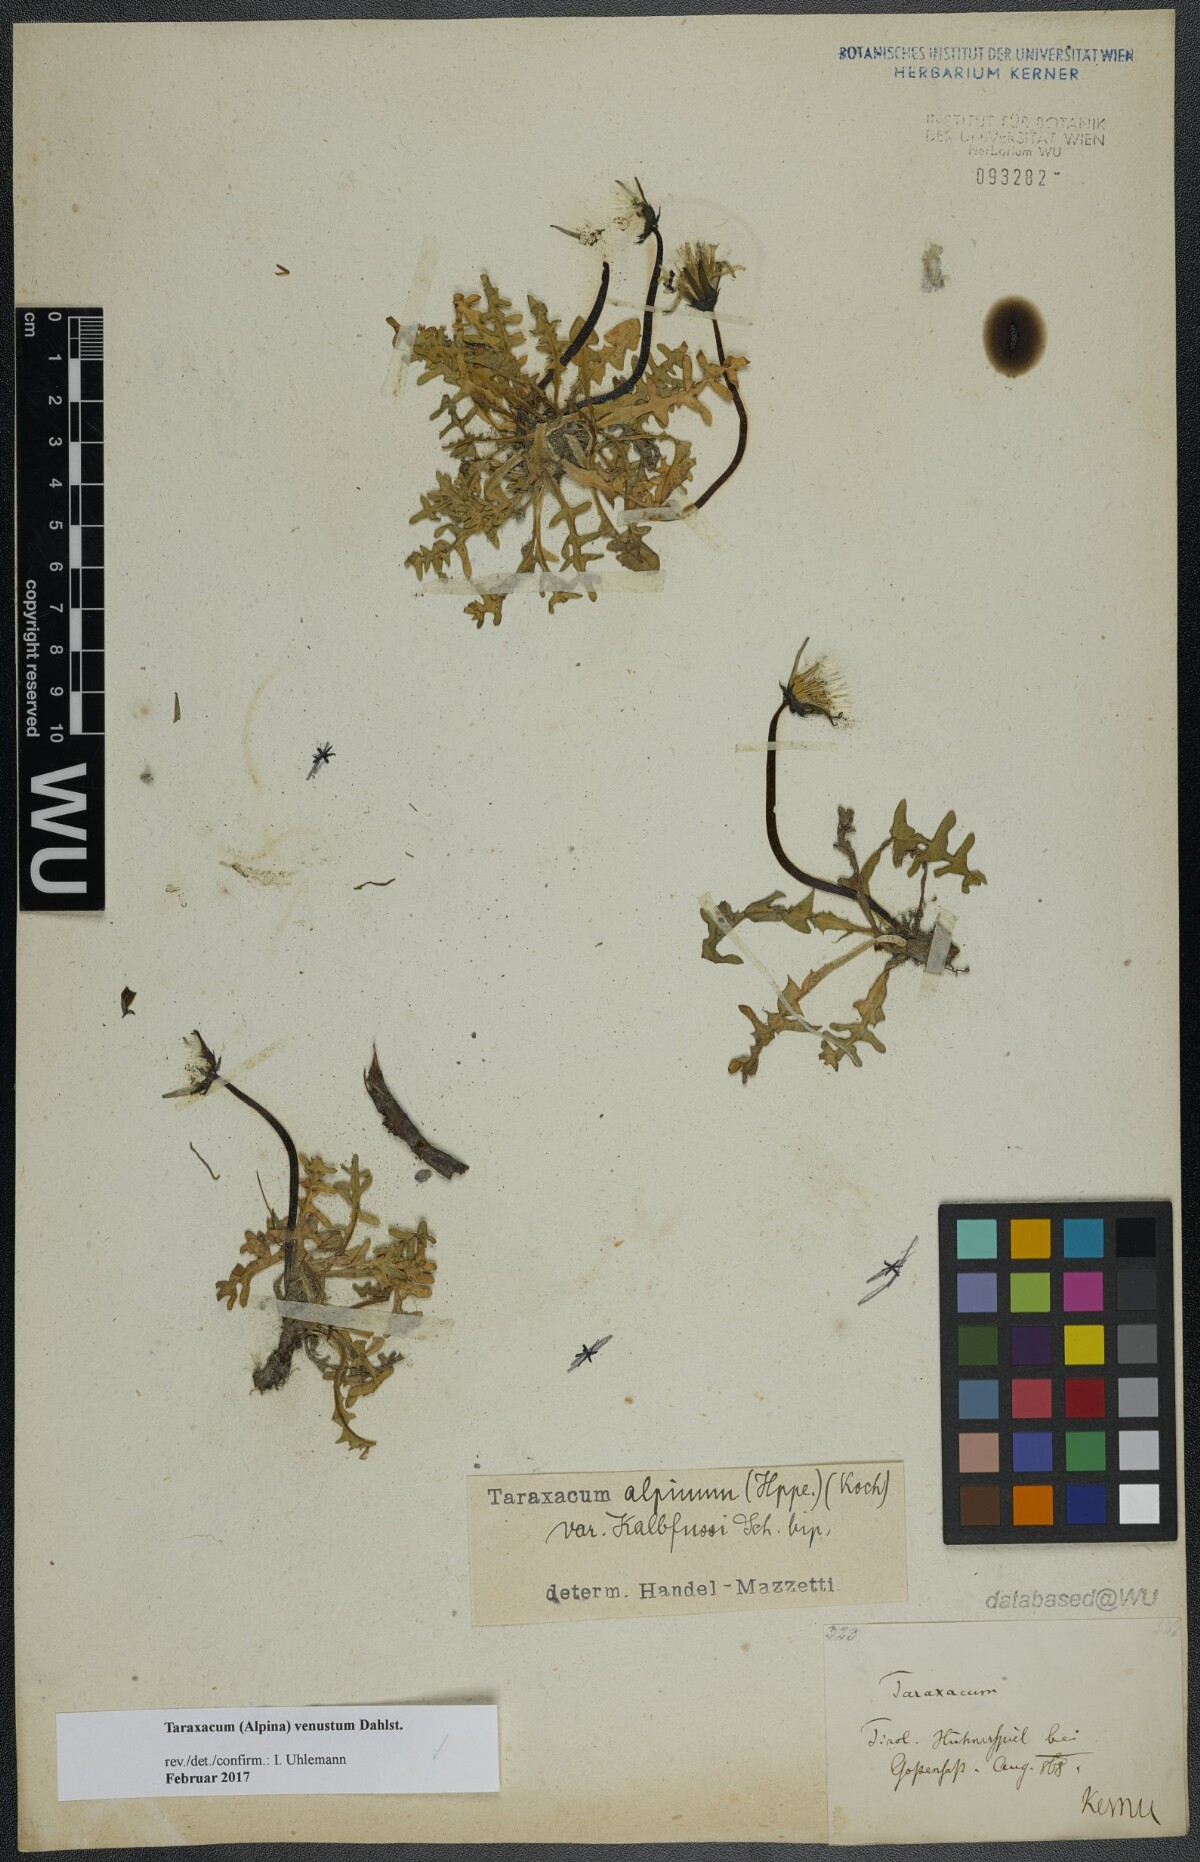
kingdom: Plantae
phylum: Tracheophyta
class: Magnoliopsida
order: Asterales
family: Asteraceae
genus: Taraxacum
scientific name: Taraxacum venustum
